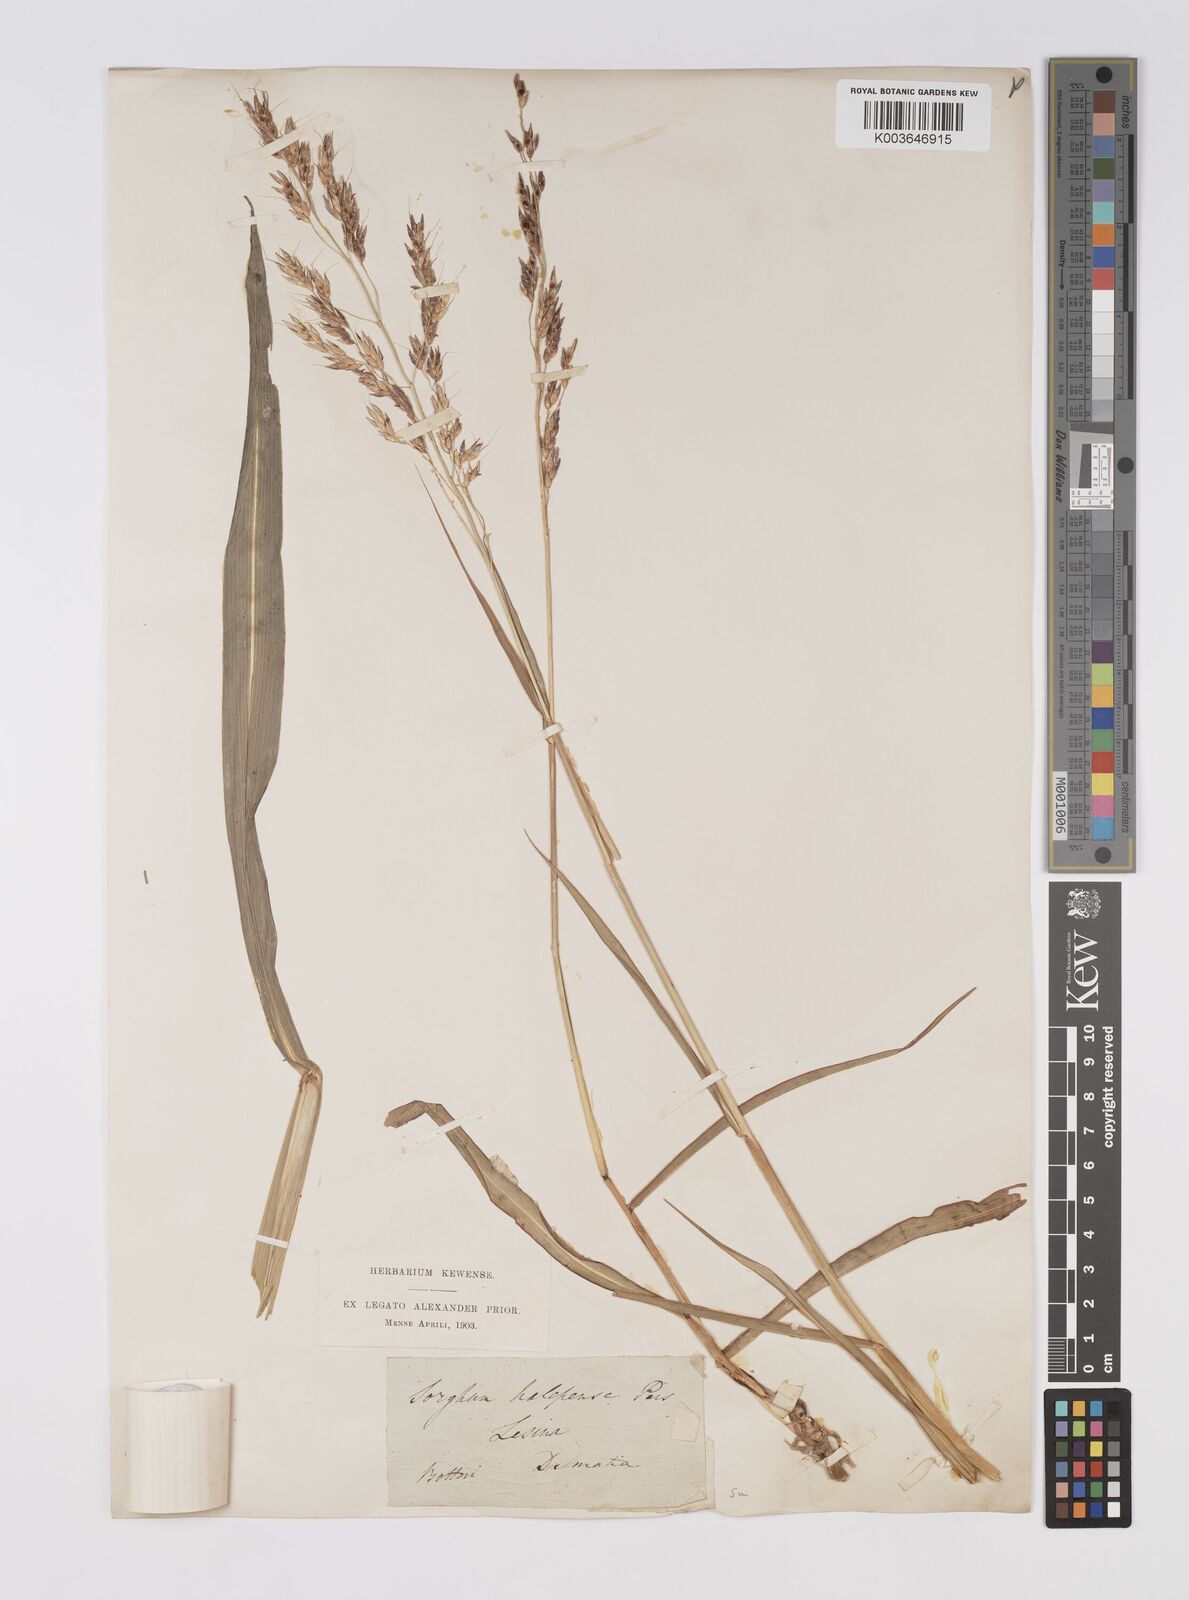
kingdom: Plantae
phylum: Tracheophyta
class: Liliopsida
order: Poales
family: Poaceae
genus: Sorghum
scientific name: Sorghum halepense
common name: Johnson-grass
